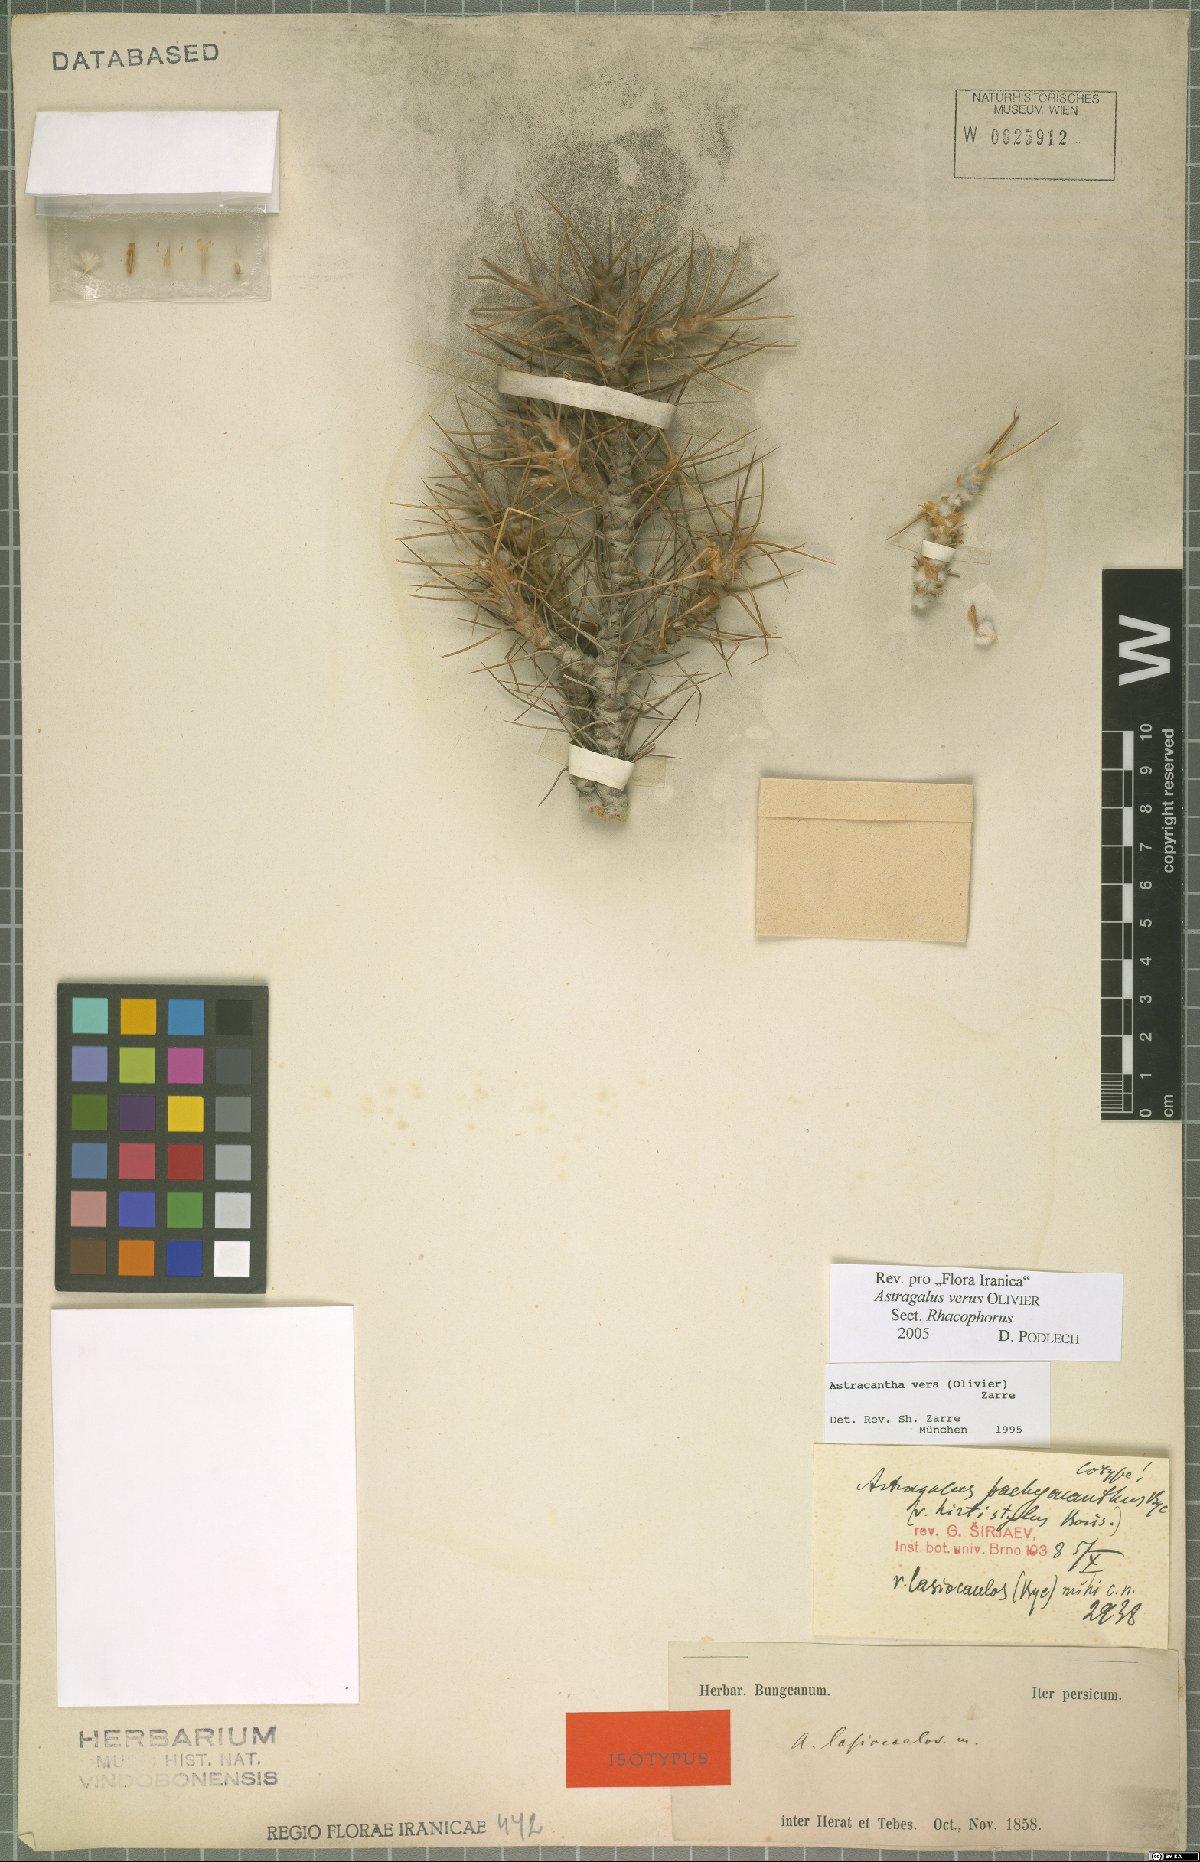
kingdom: Plantae
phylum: Tracheophyta
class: Magnoliopsida
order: Fabales
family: Fabaceae
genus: Astragalus
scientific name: Astragalus verus
